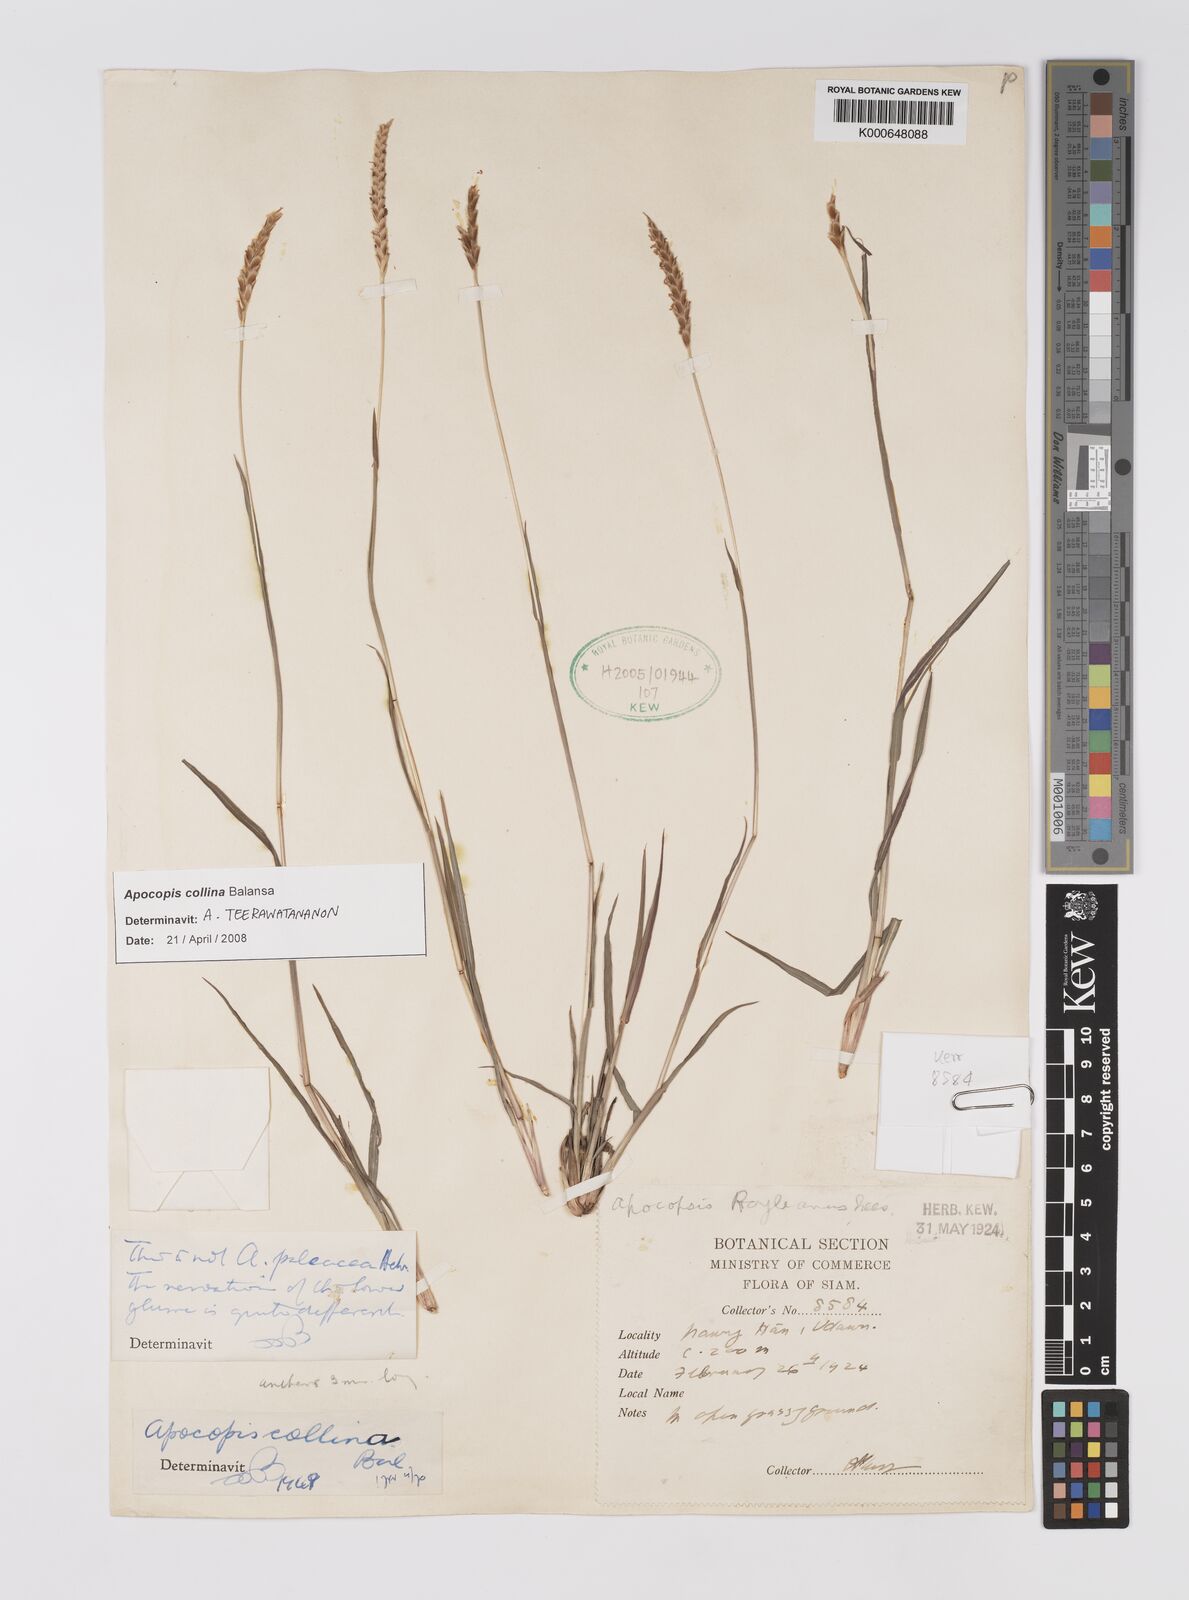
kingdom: Plantae
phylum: Tracheophyta
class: Liliopsida
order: Poales
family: Poaceae
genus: Apocopis
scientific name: Apocopis collinus
